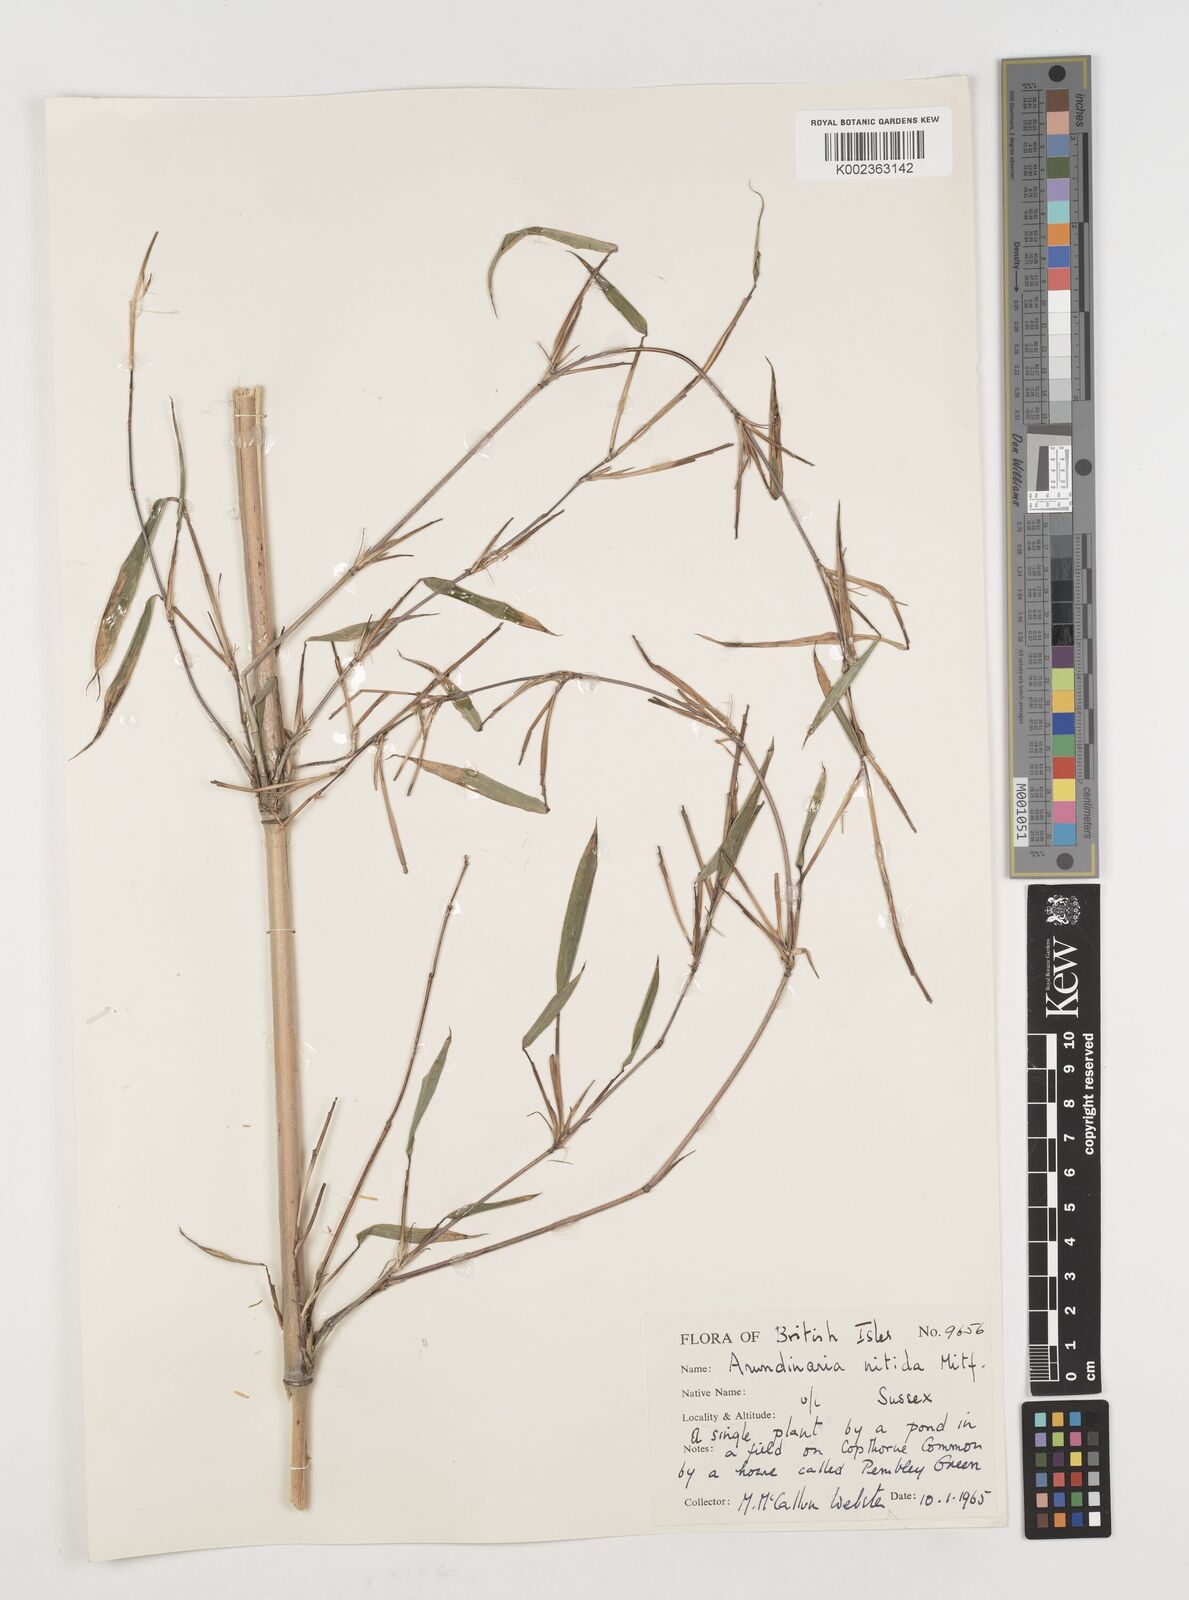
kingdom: Plantae
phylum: Tracheophyta
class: Liliopsida
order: Poales
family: Poaceae
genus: Fargesia
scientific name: Fargesia nitida ex
